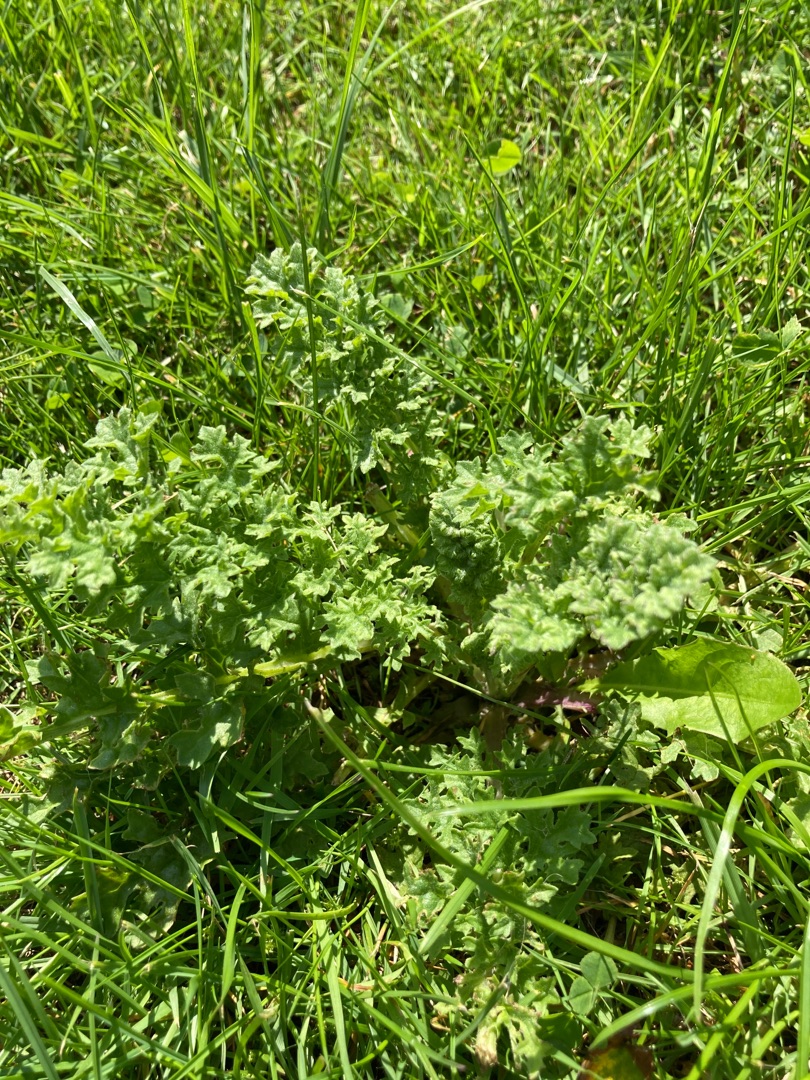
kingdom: Plantae
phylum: Tracheophyta
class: Magnoliopsida
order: Asterales
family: Asteraceae
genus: Jacobaea
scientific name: Jacobaea vulgaris
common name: Eng-brandbæger
